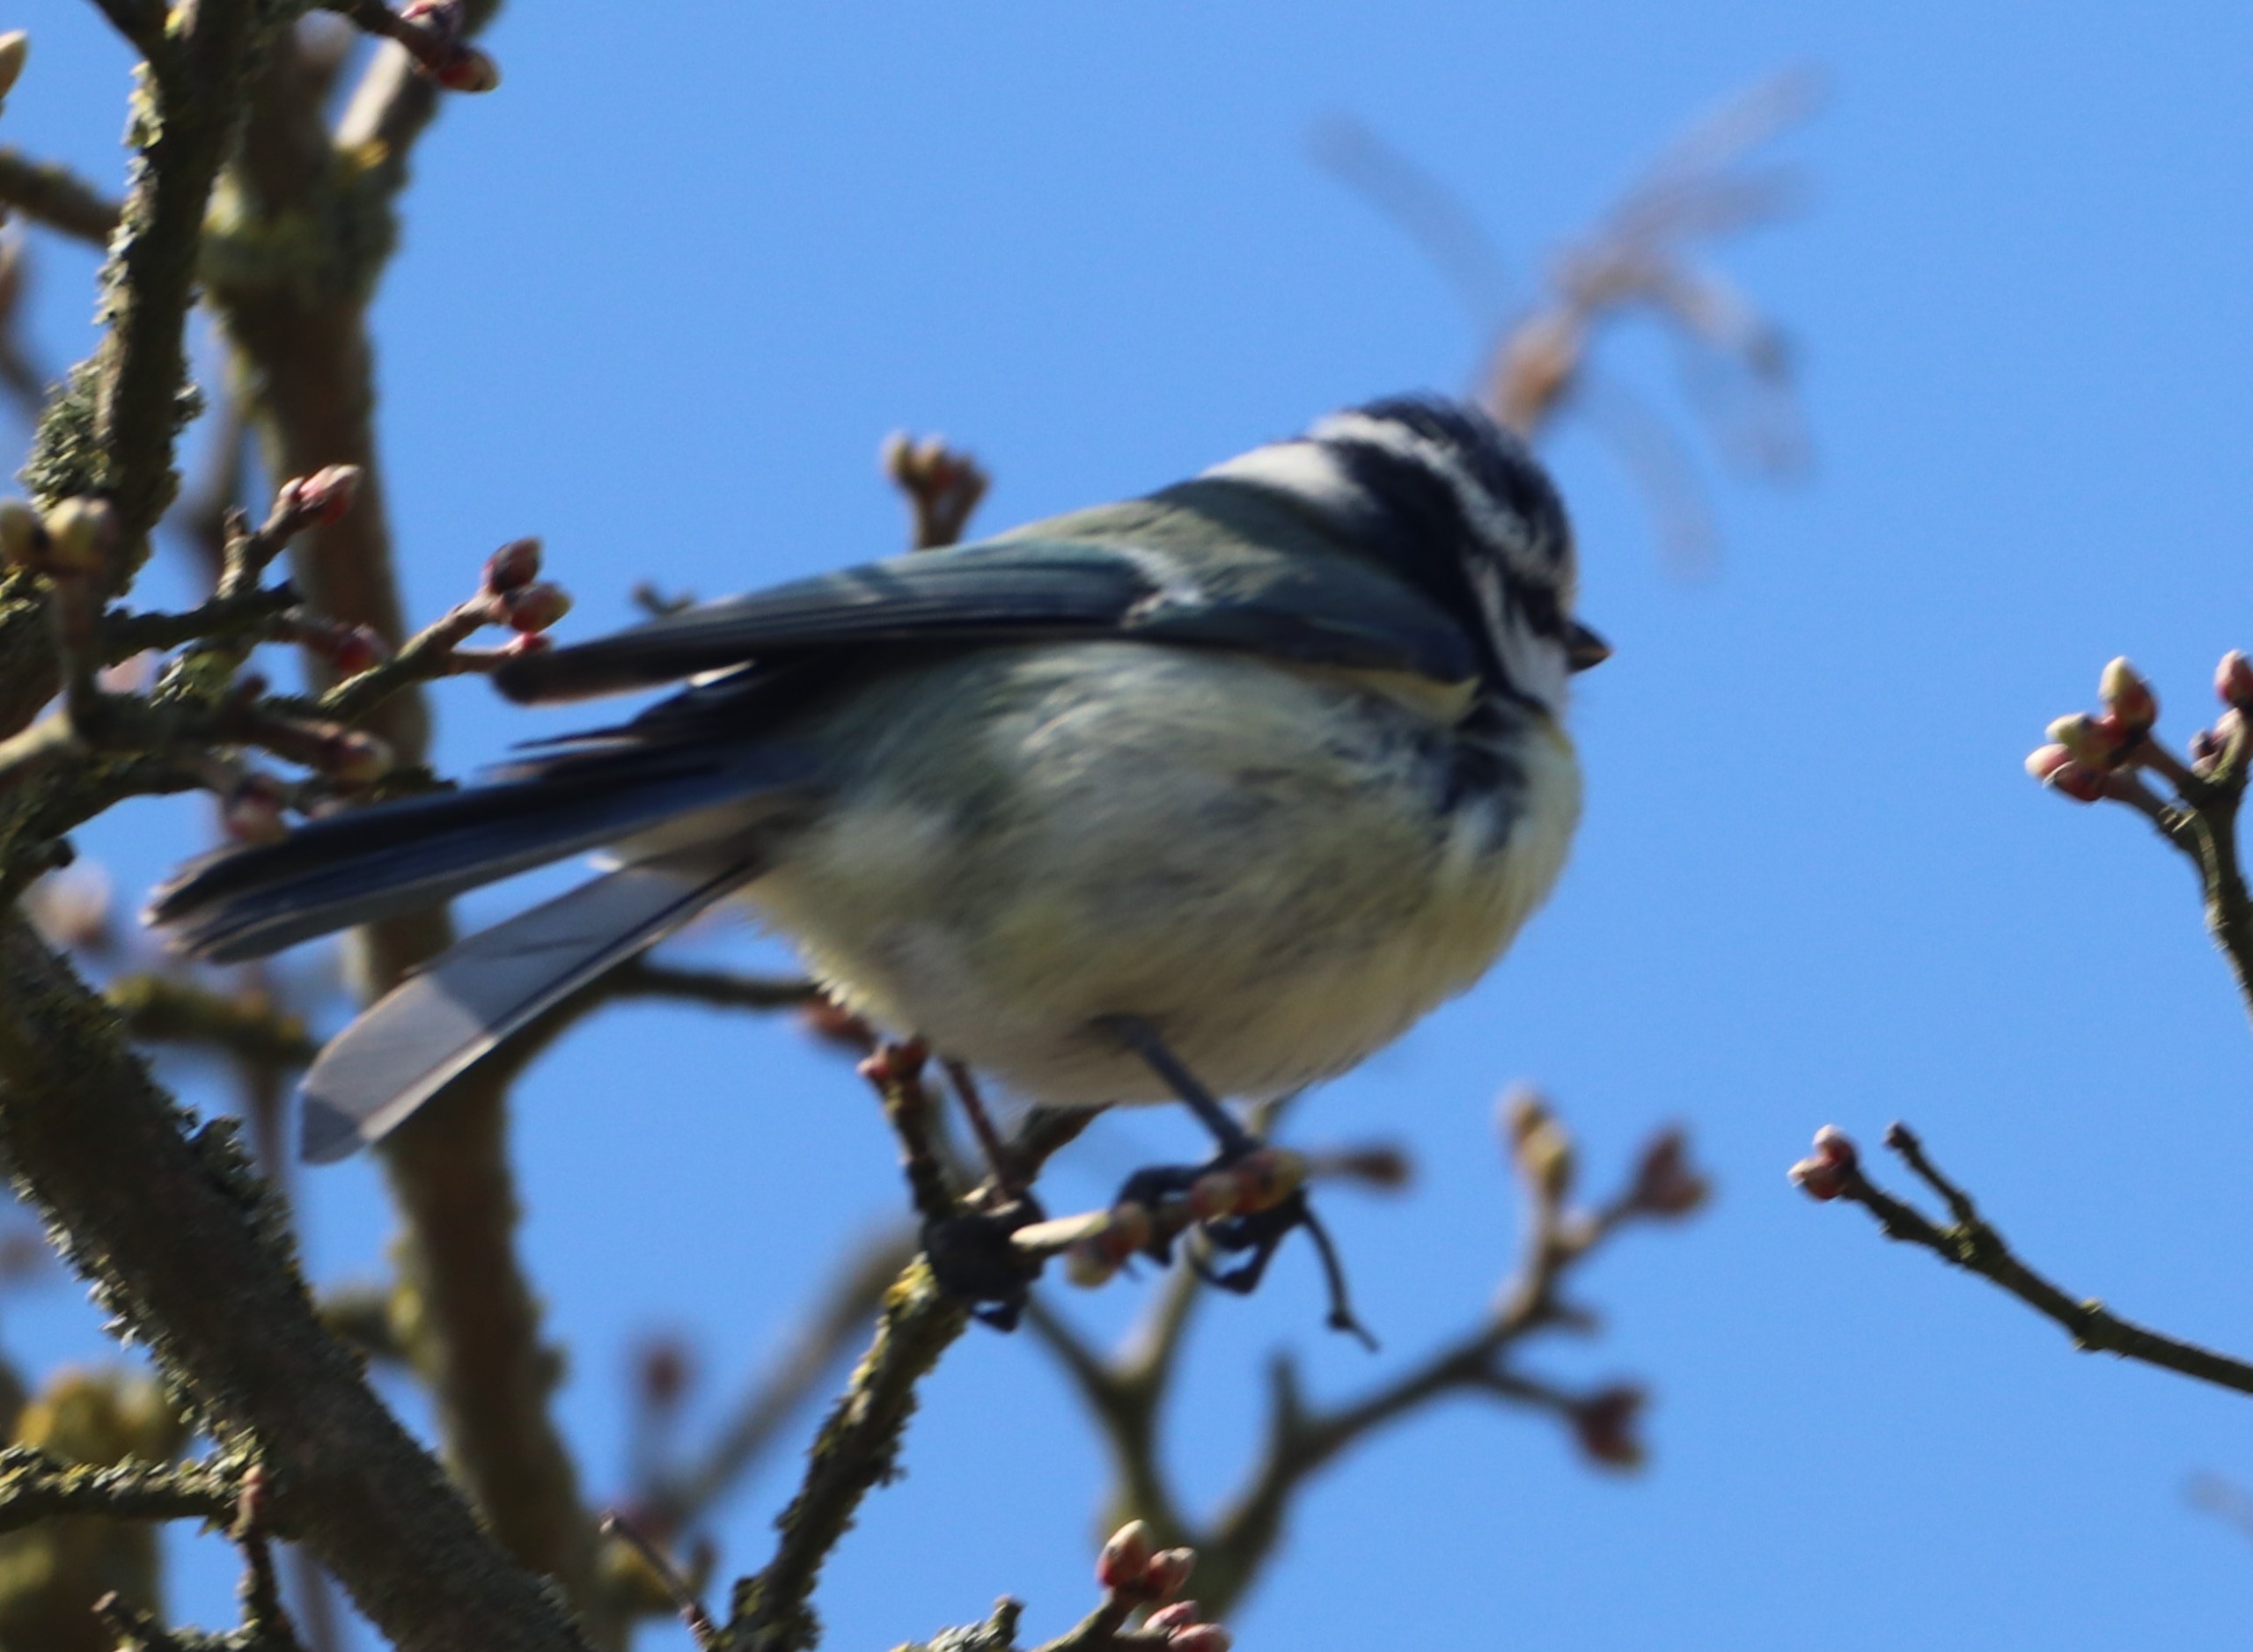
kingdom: Animalia
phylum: Chordata
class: Aves
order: Passeriformes
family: Paridae
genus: Cyanistes
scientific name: Cyanistes caeruleus
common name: Blåmejse
